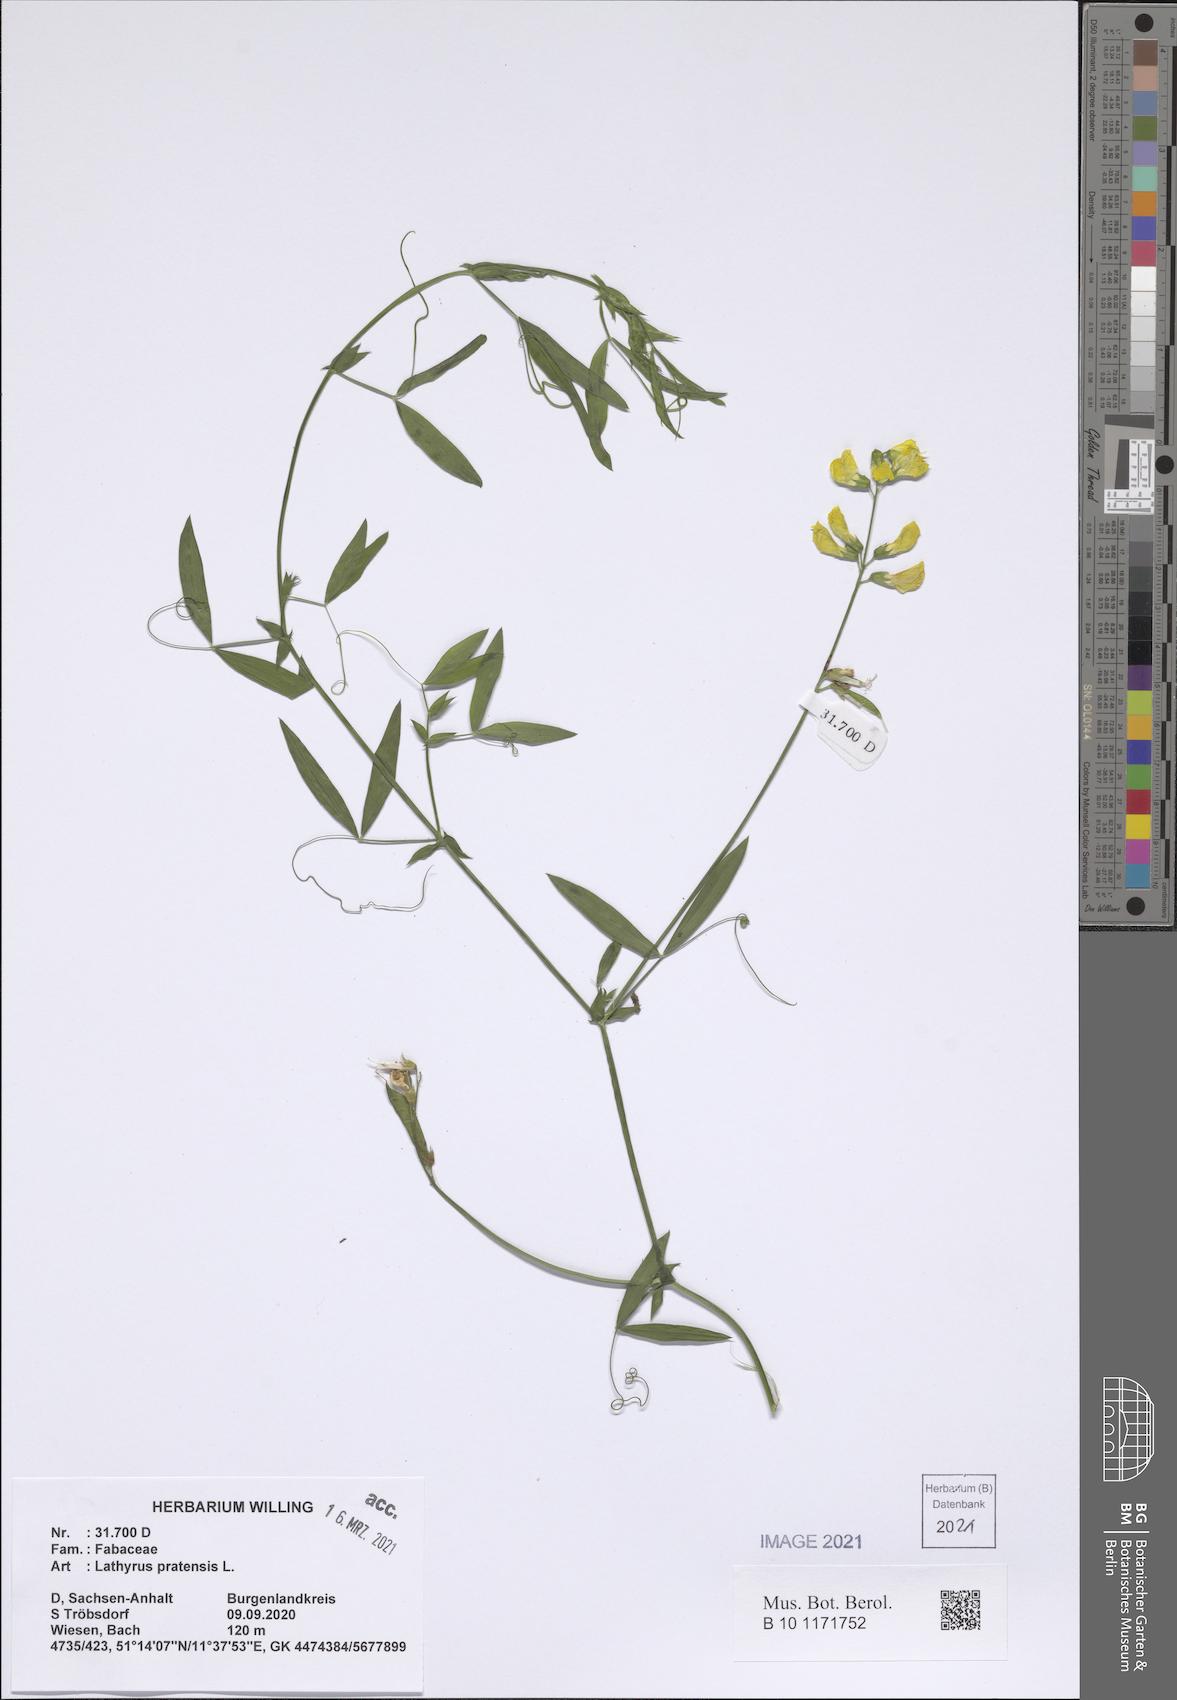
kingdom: Plantae
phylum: Tracheophyta
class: Magnoliopsida
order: Fabales
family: Fabaceae
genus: Lathyrus
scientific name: Lathyrus pratensis
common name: Meadow vetchling
